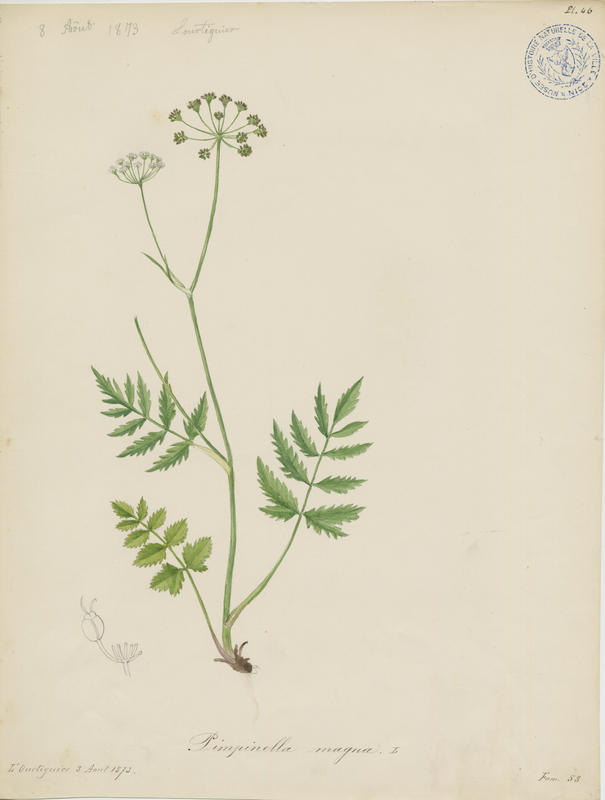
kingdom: Plantae
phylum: Tracheophyta
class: Magnoliopsida
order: Apiales
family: Apiaceae
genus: Pimpinella
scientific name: Pimpinella major
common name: Greater burnet-saxifrage
